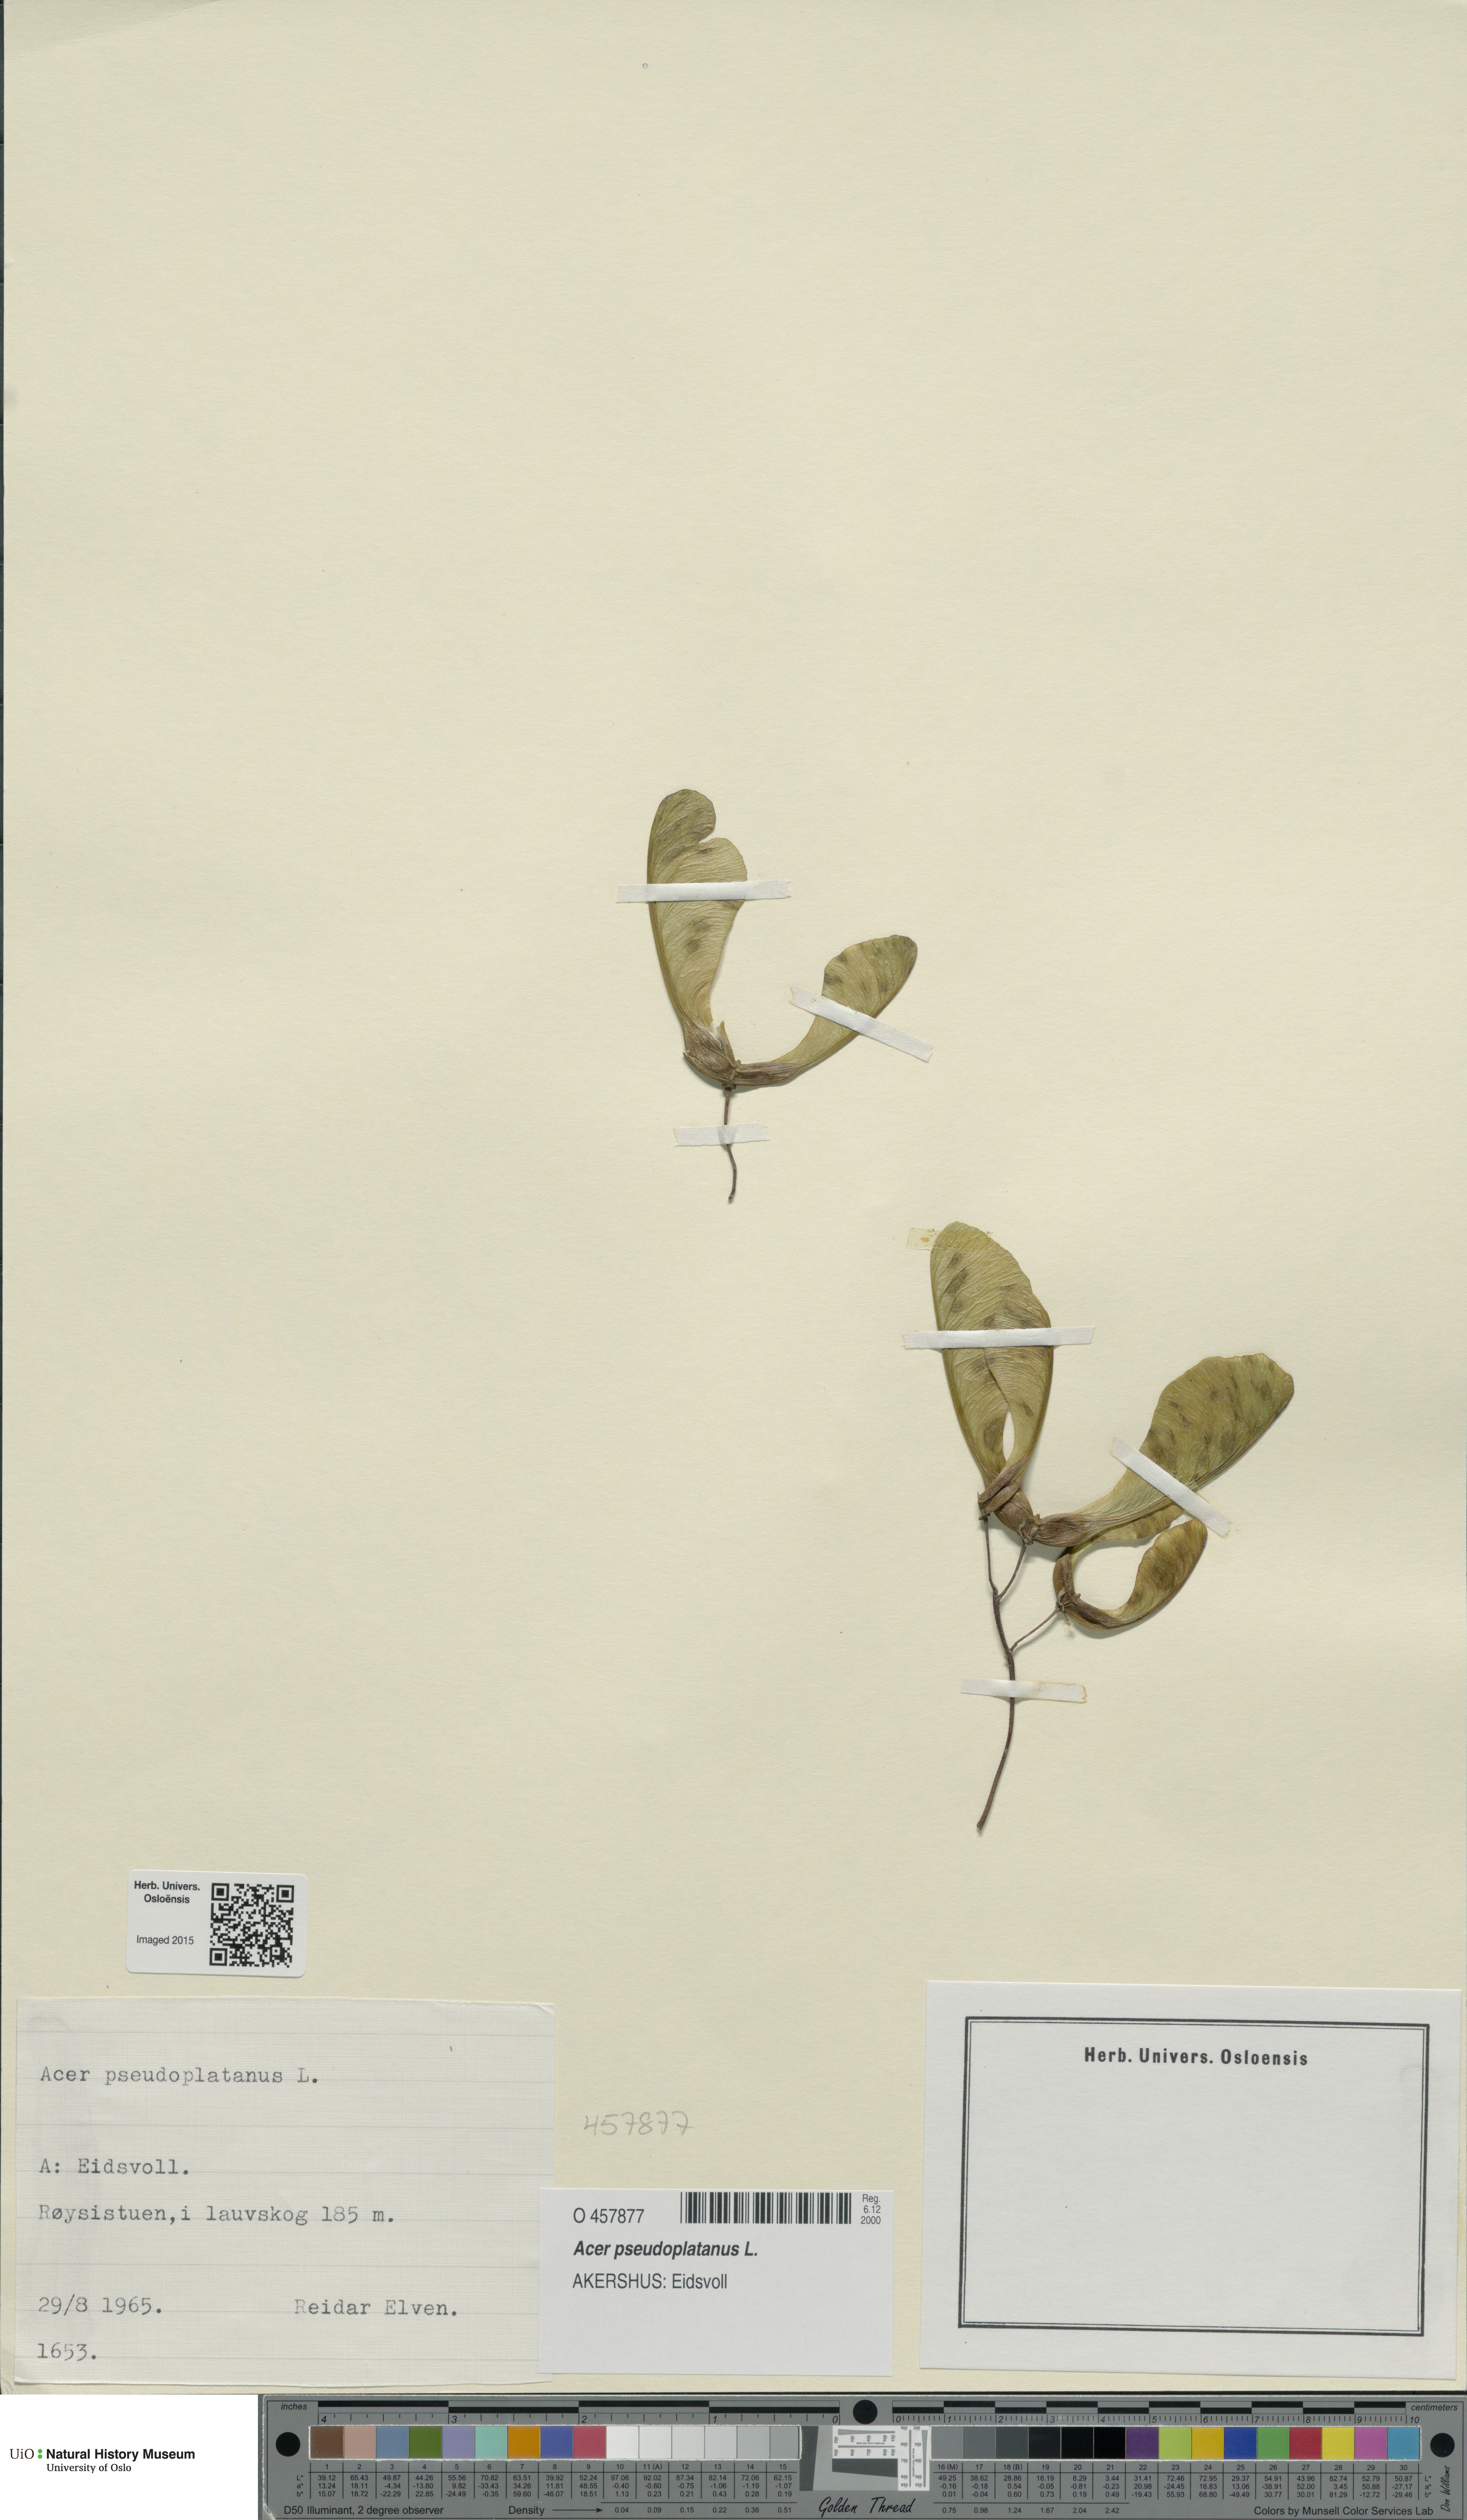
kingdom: Plantae
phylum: Tracheophyta
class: Magnoliopsida
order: Sapindales
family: Sapindaceae
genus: Acer
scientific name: Acer pseudoplatanus
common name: Sycamore
